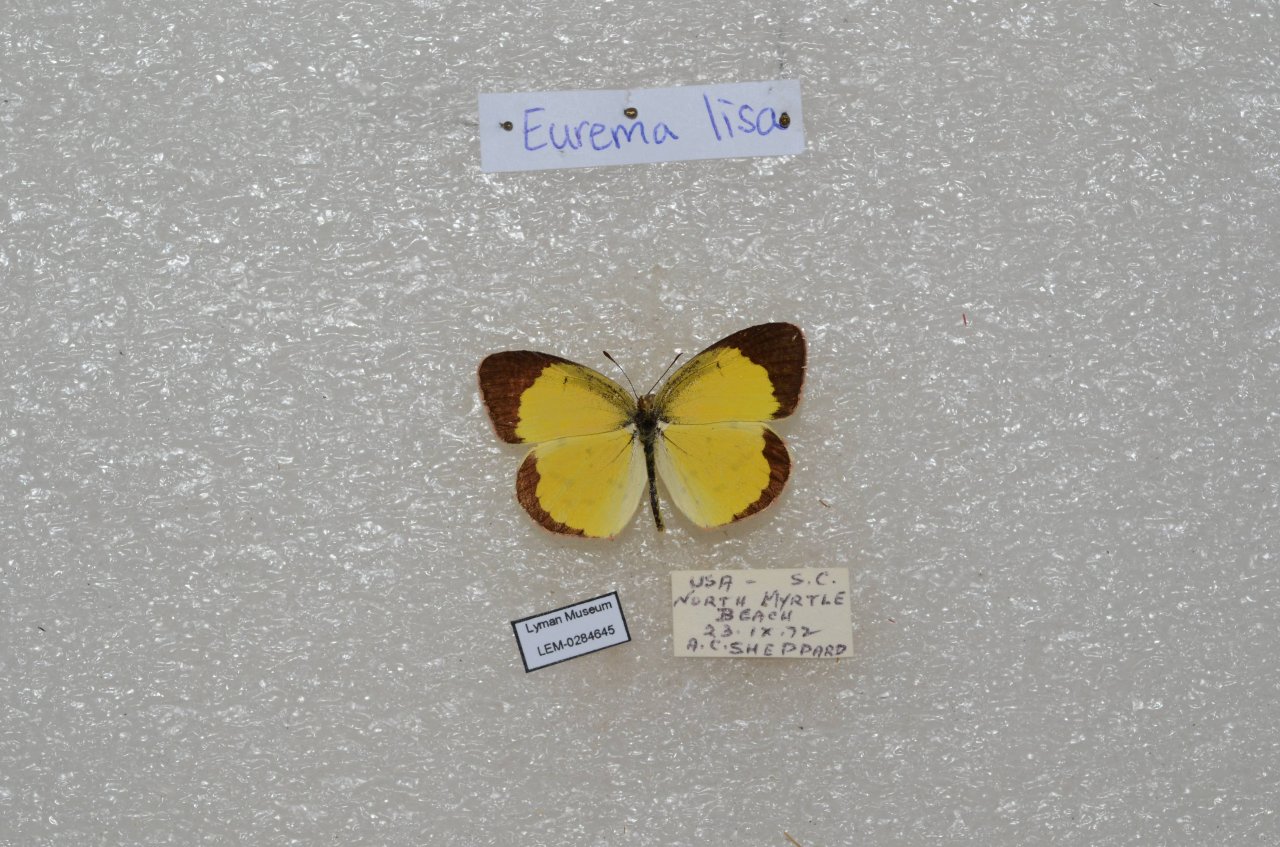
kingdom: Animalia
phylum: Arthropoda
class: Insecta
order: Lepidoptera
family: Pieridae
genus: Pyrisitia
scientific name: Pyrisitia lisa
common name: Little Yellow
